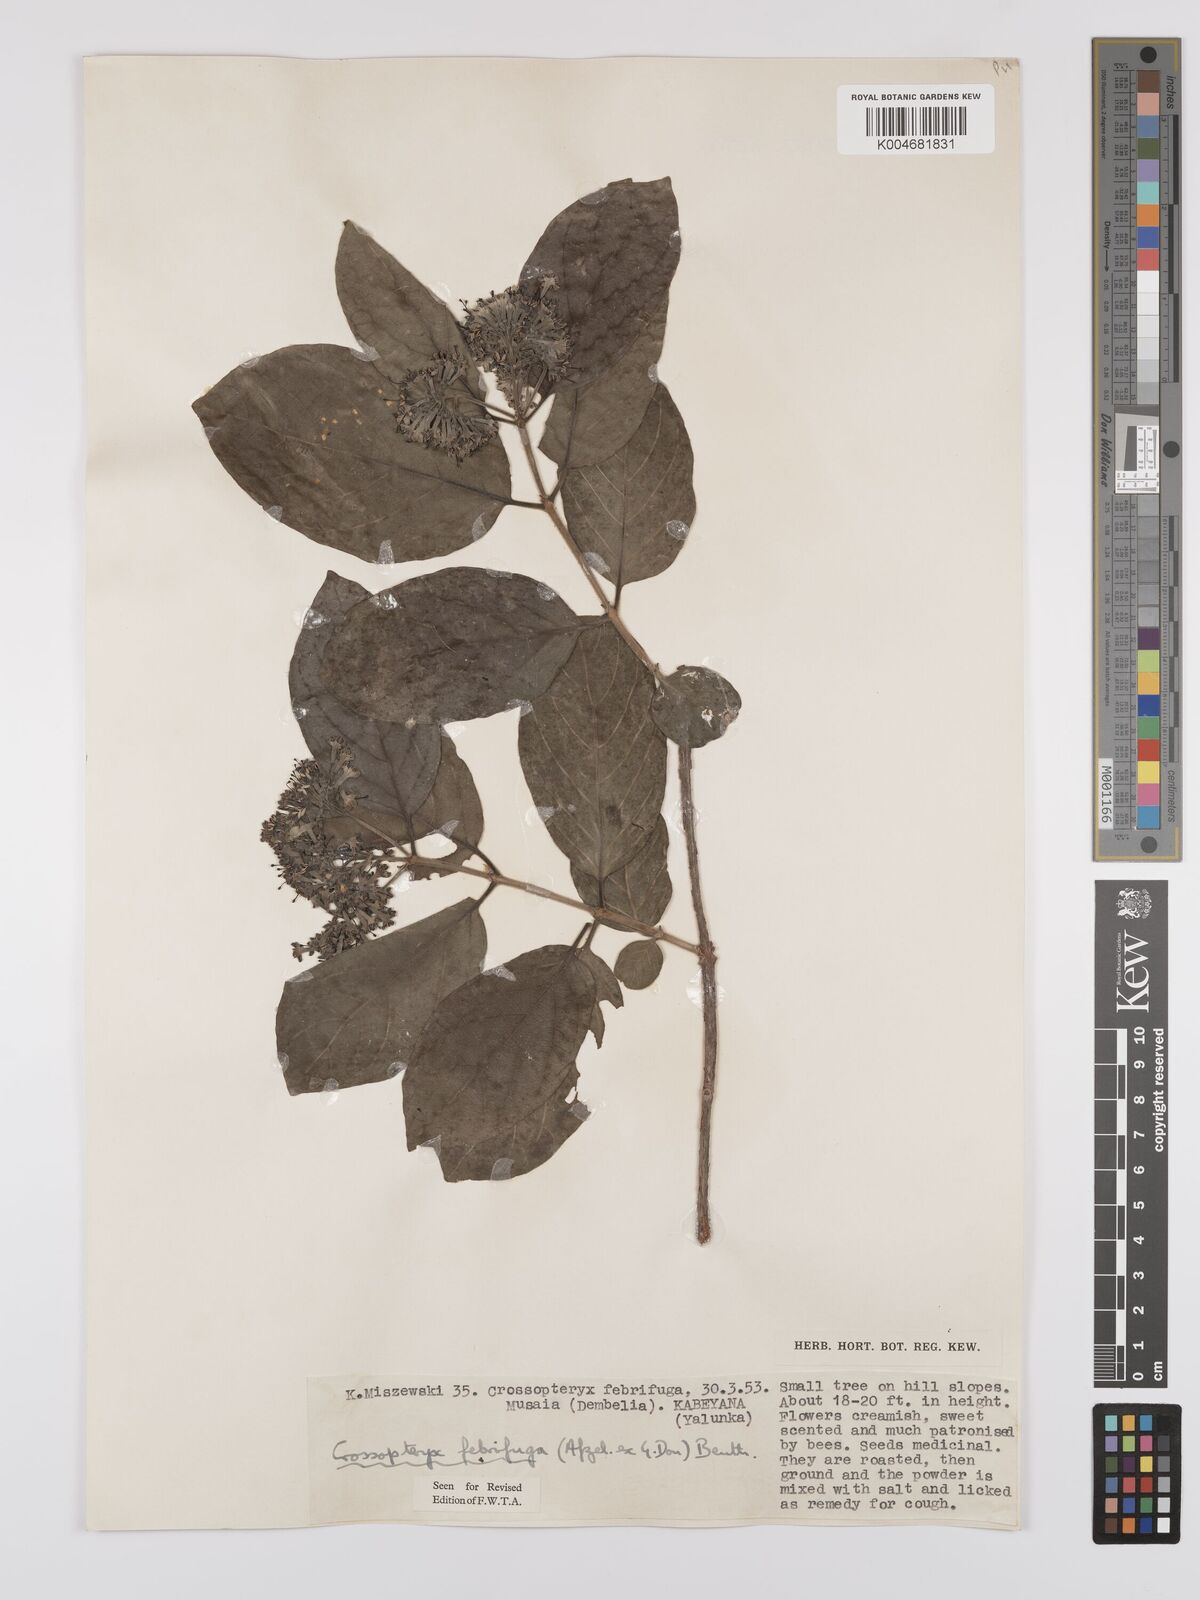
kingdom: Plantae
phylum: Tracheophyta
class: Magnoliopsida
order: Gentianales
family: Rubiaceae
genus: Crossopteryx
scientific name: Crossopteryx febrifuga
